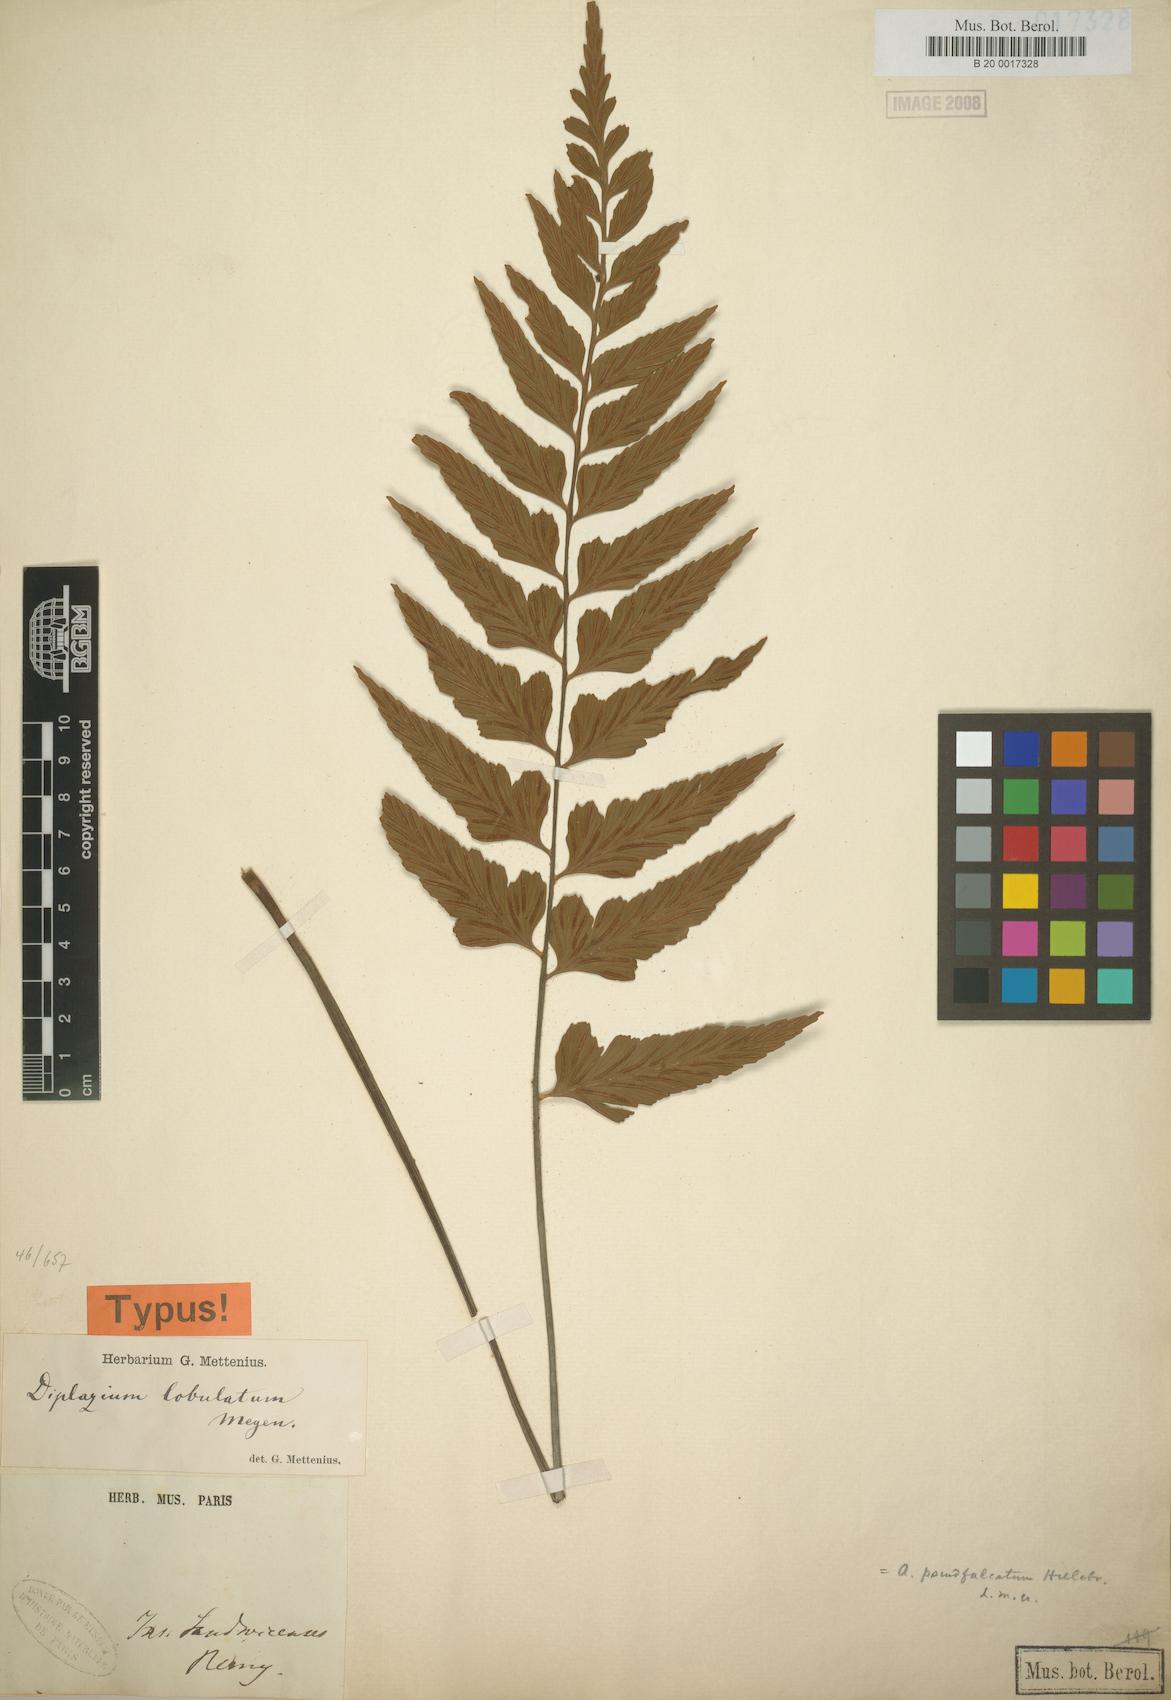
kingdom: Plantae
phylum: Tracheophyta
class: Polypodiopsida
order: Polypodiales
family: Aspleniaceae
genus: Asplenium
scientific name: Asplenium lobulatum
